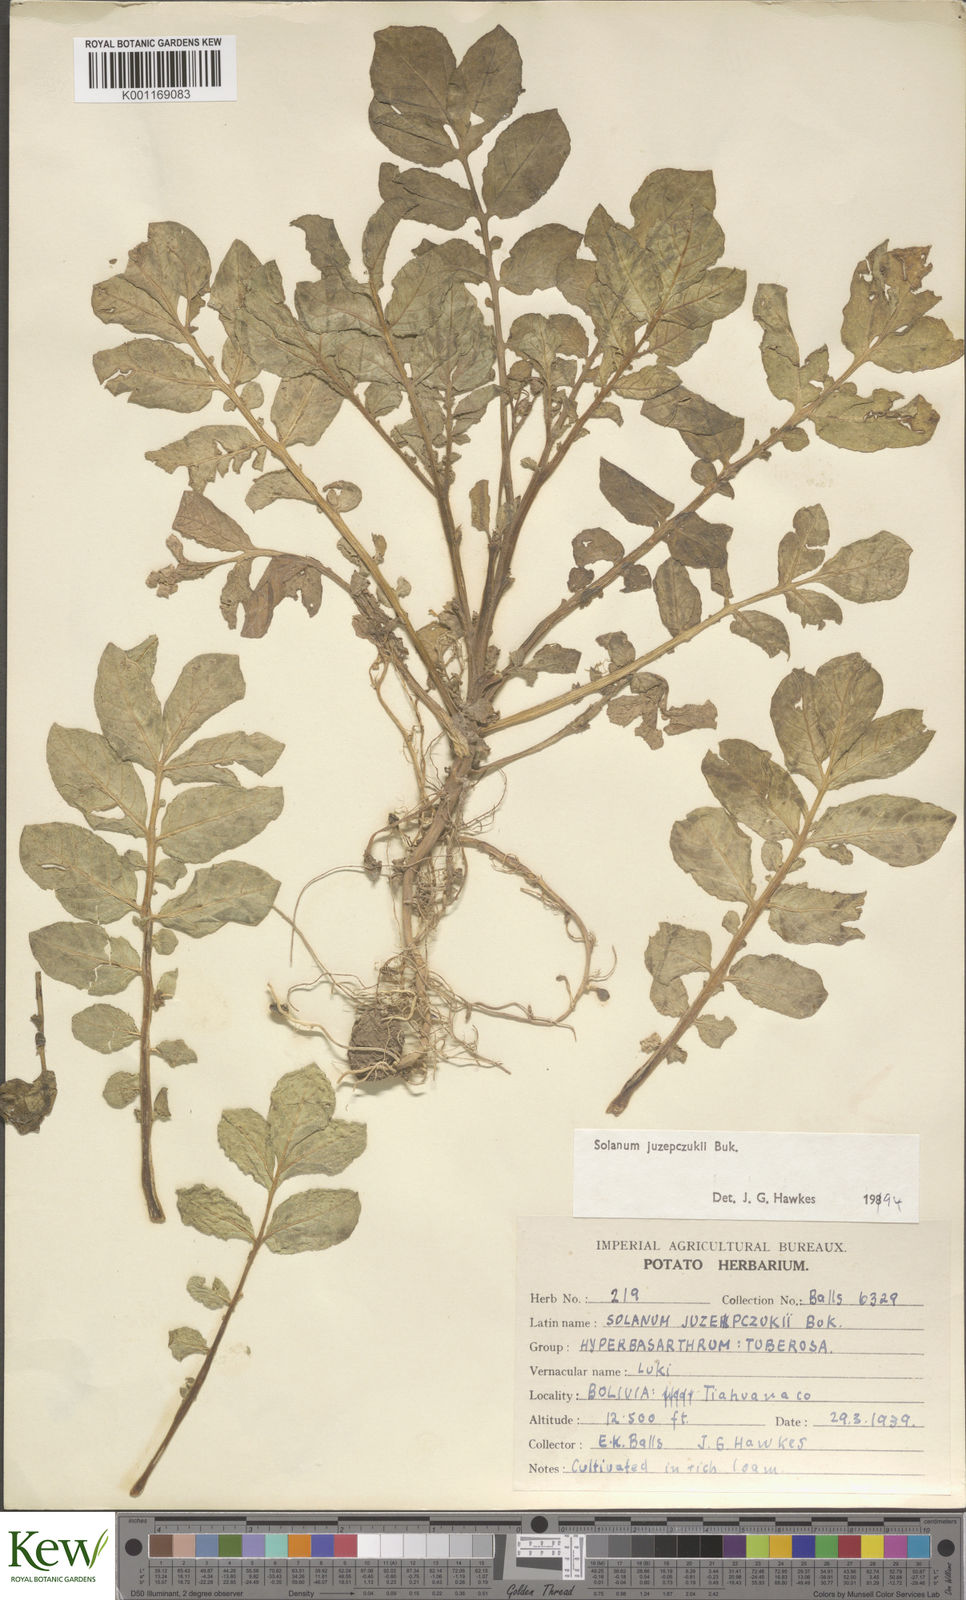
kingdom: Plantae
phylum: Tracheophyta
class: Magnoliopsida
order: Solanales
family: Solanaceae
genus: Solanum
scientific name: Solanum juzepczukii
